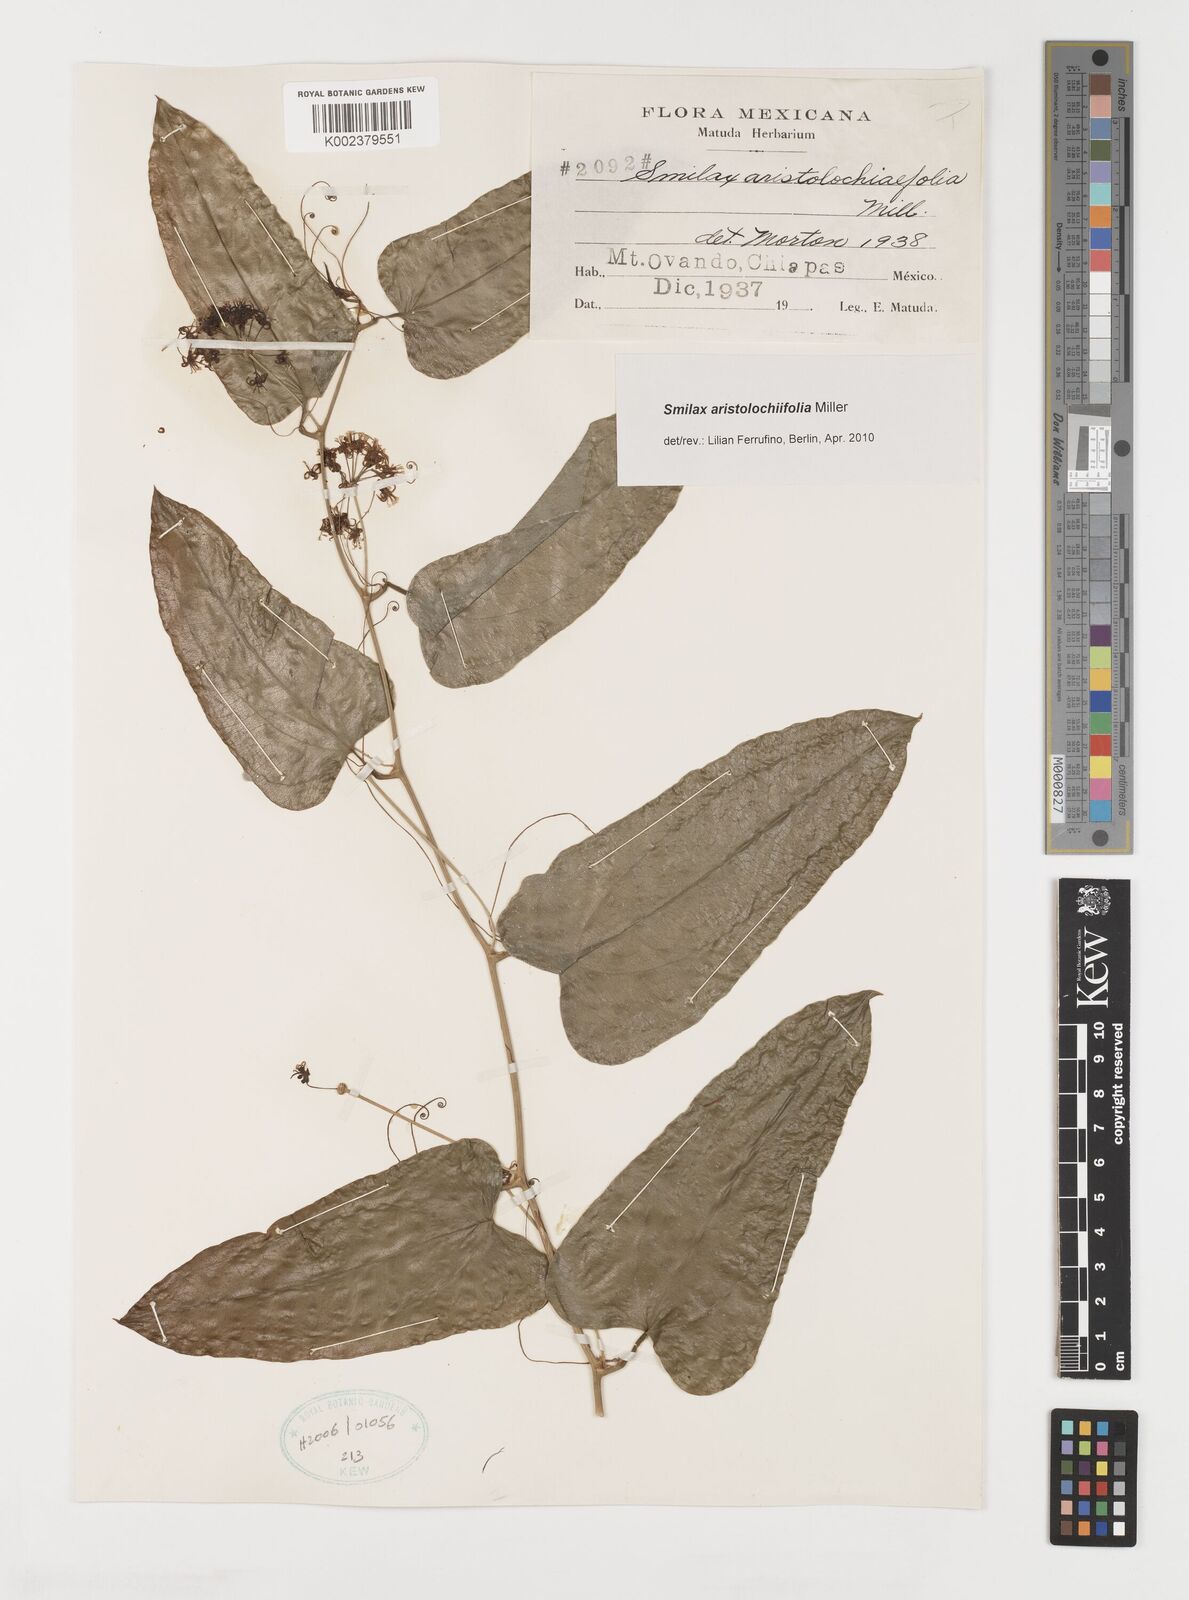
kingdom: Plantae
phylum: Tracheophyta
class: Liliopsida
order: Liliales
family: Smilacaceae
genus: Smilax
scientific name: Smilax aristolochiifolia
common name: Sarsaparilla
